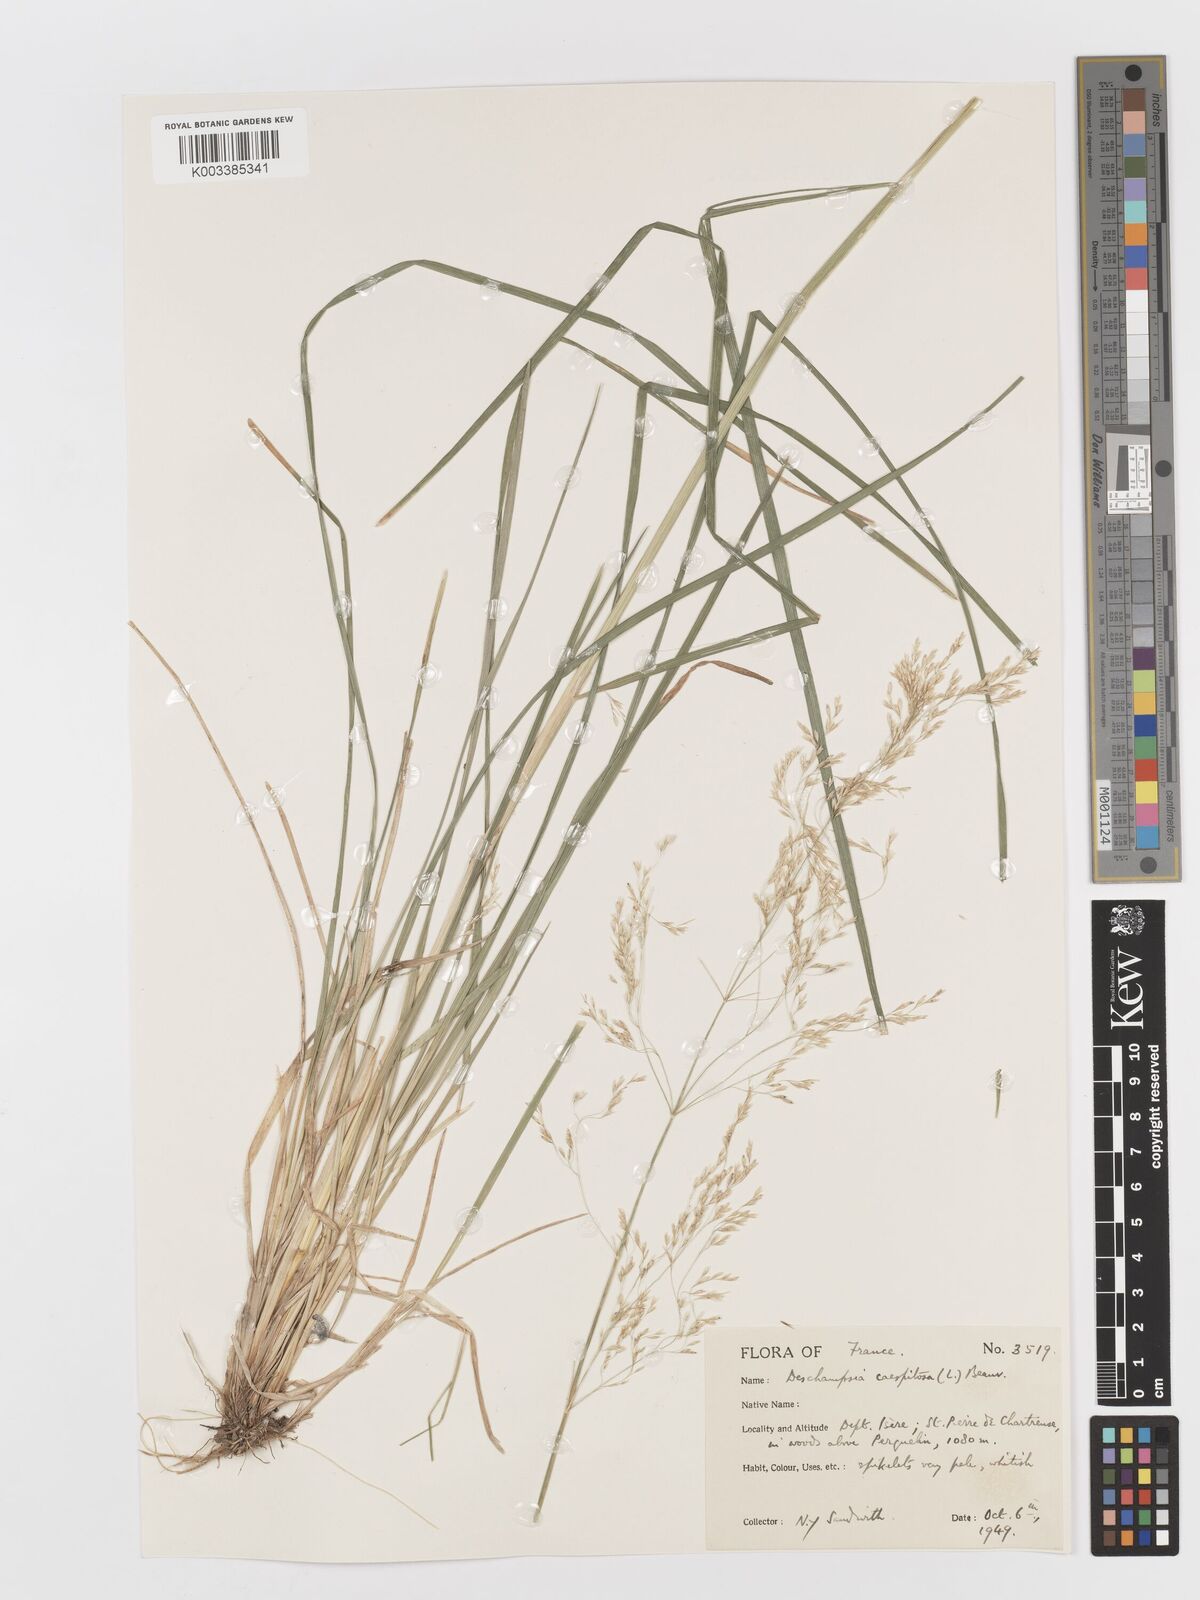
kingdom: Plantae
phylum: Tracheophyta
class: Liliopsida
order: Poales
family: Poaceae
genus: Deschampsia
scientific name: Deschampsia cespitosa
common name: Tufted hair-grass
